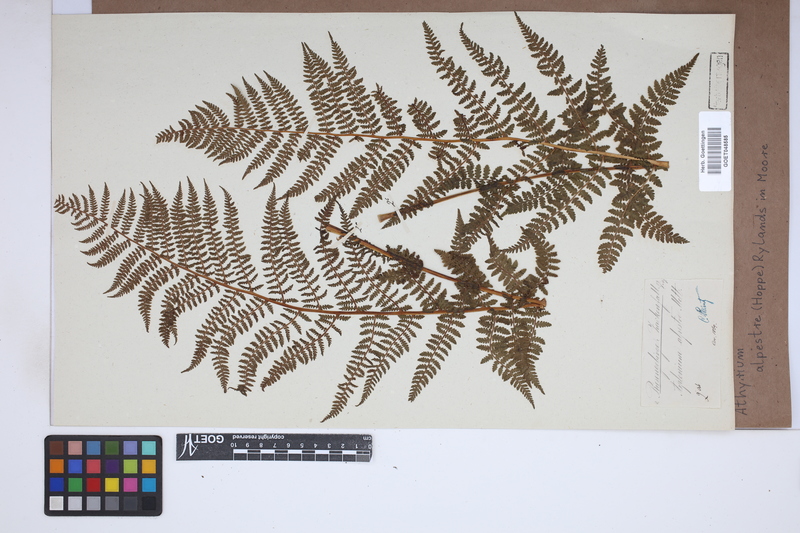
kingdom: Plantae
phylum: Tracheophyta
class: Polypodiopsida
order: Polypodiales
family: Athyriaceae
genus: Pseudathyrium
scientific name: Pseudathyrium alpestre
